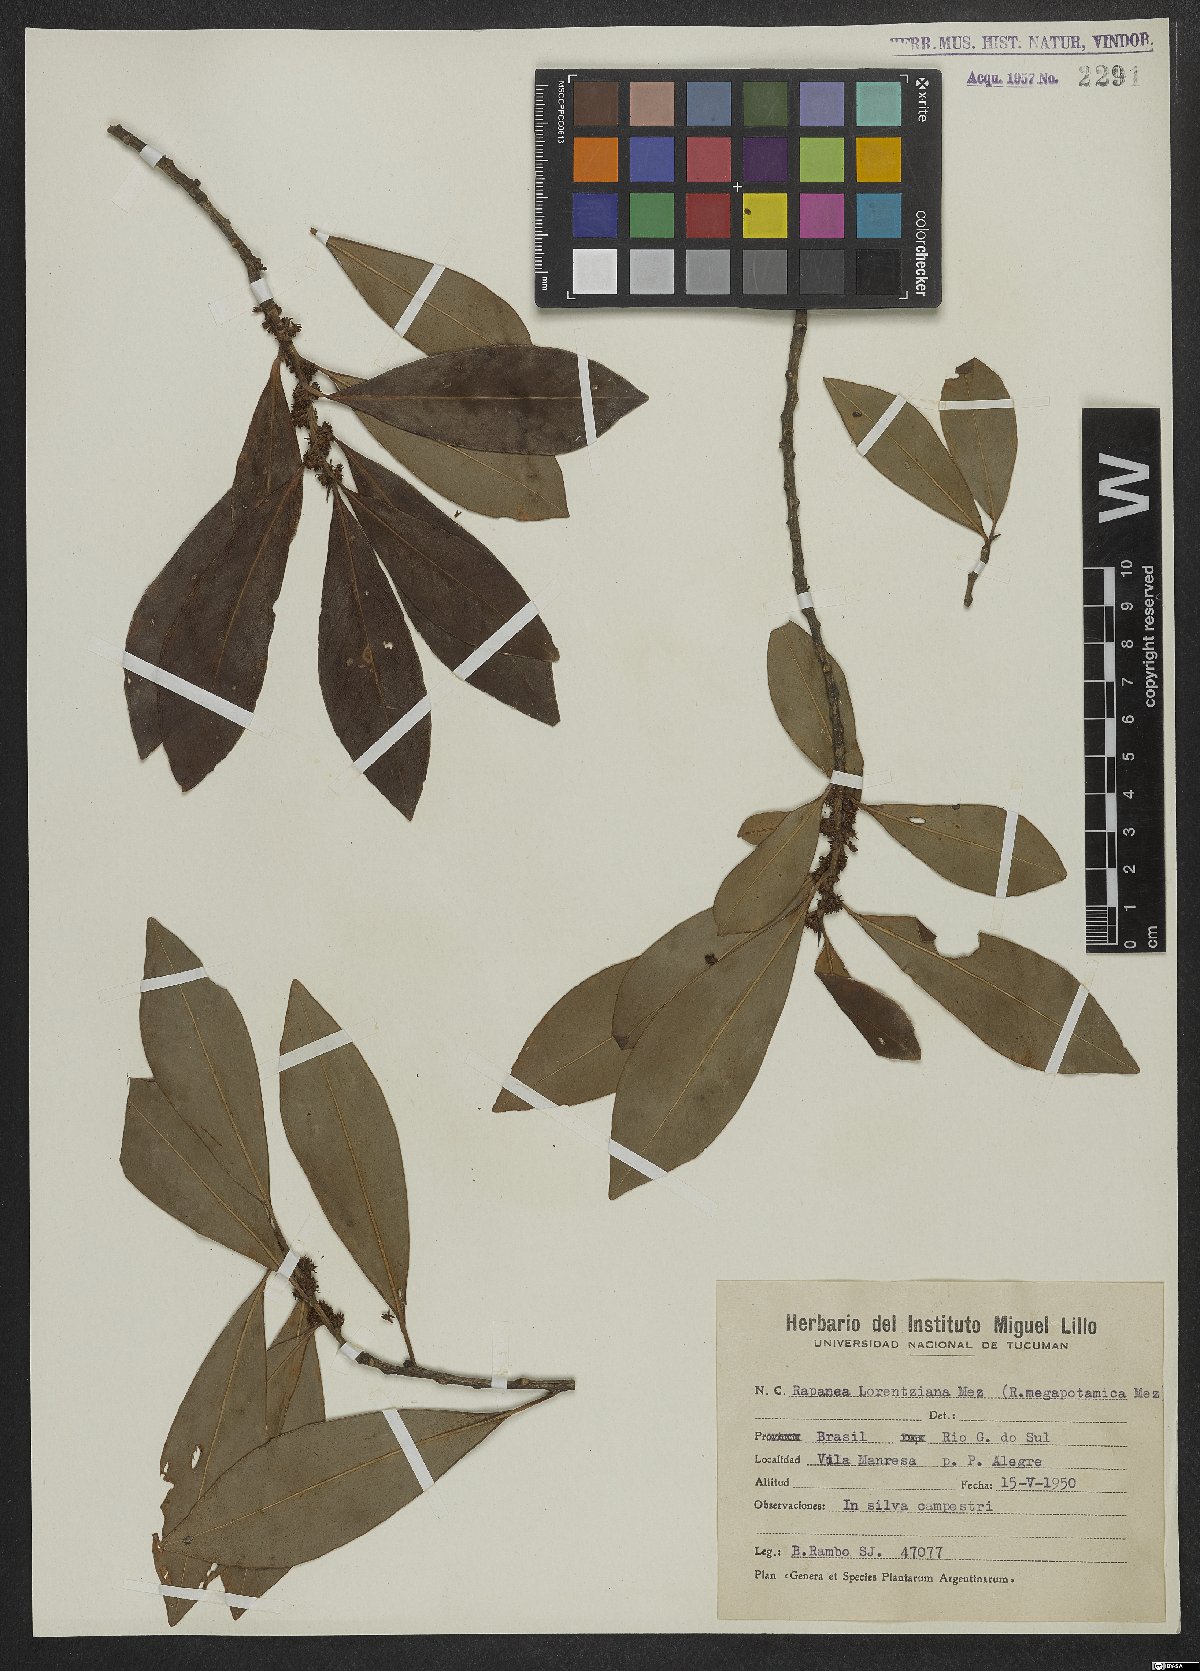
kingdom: Plantae
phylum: Tracheophyta
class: Magnoliopsida
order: Ericales
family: Primulaceae
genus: Myrsine
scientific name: Myrsine lorentziana
